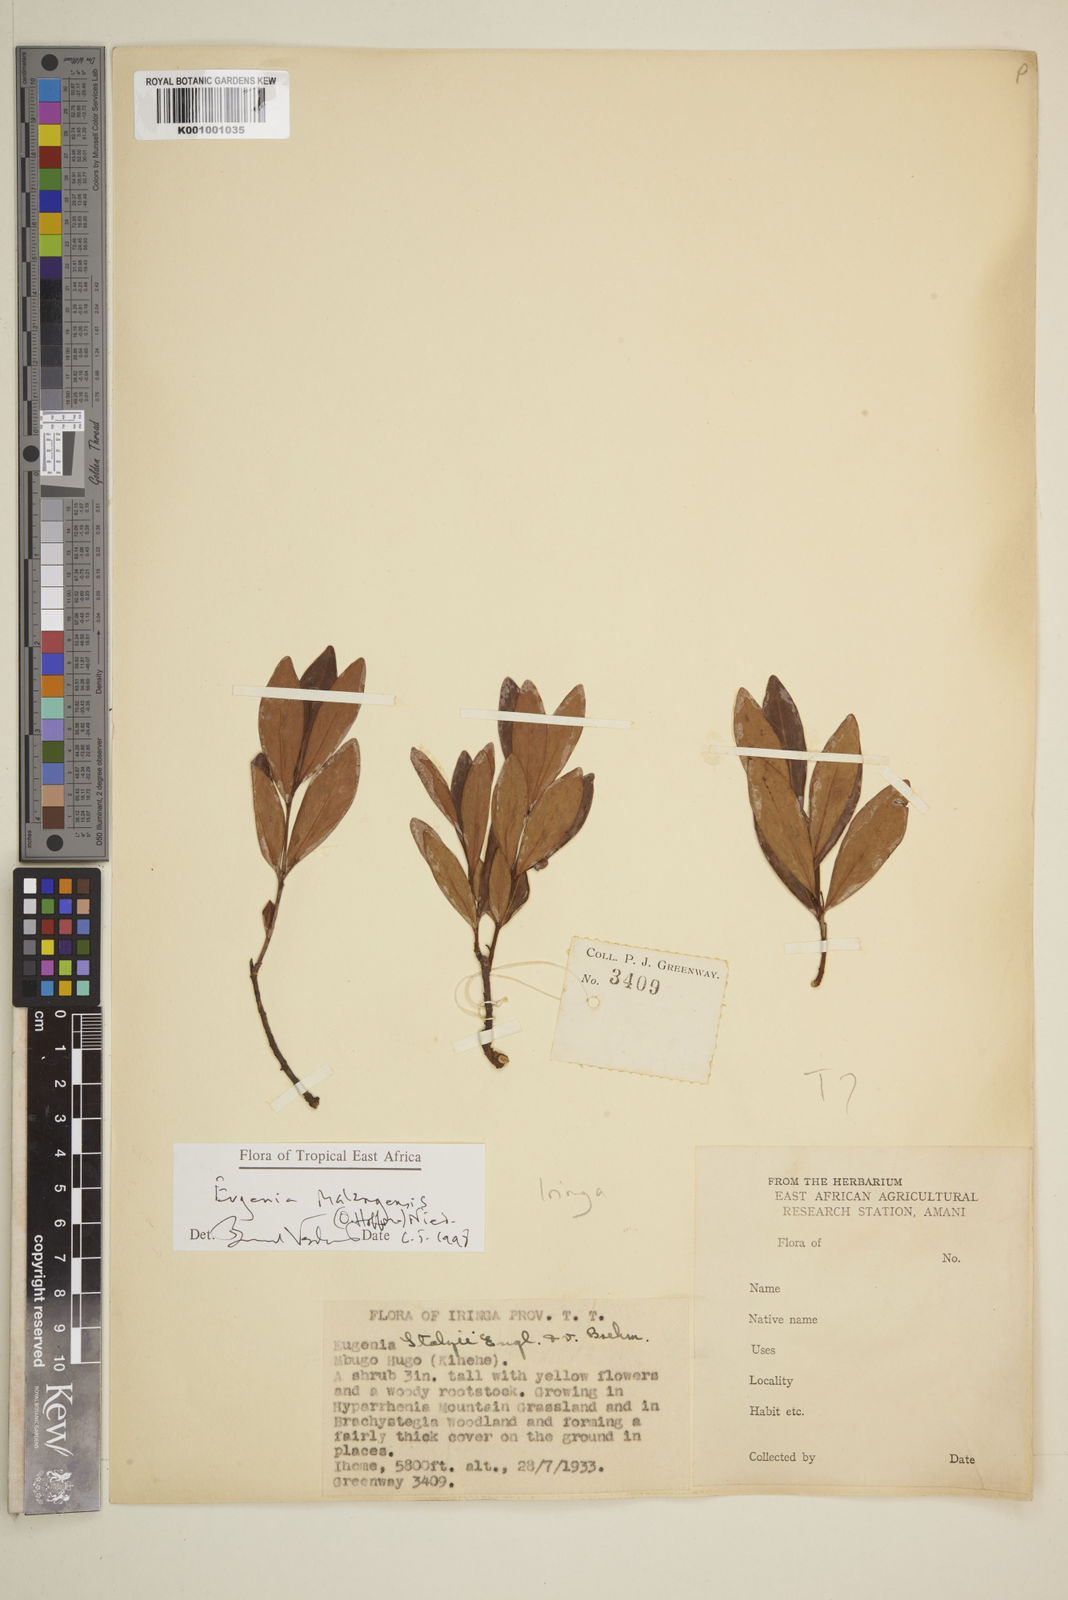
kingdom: Plantae
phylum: Tracheophyta
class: Magnoliopsida
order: Myrtales
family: Myrtaceae
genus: Eugenia
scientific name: Eugenia malangensis
